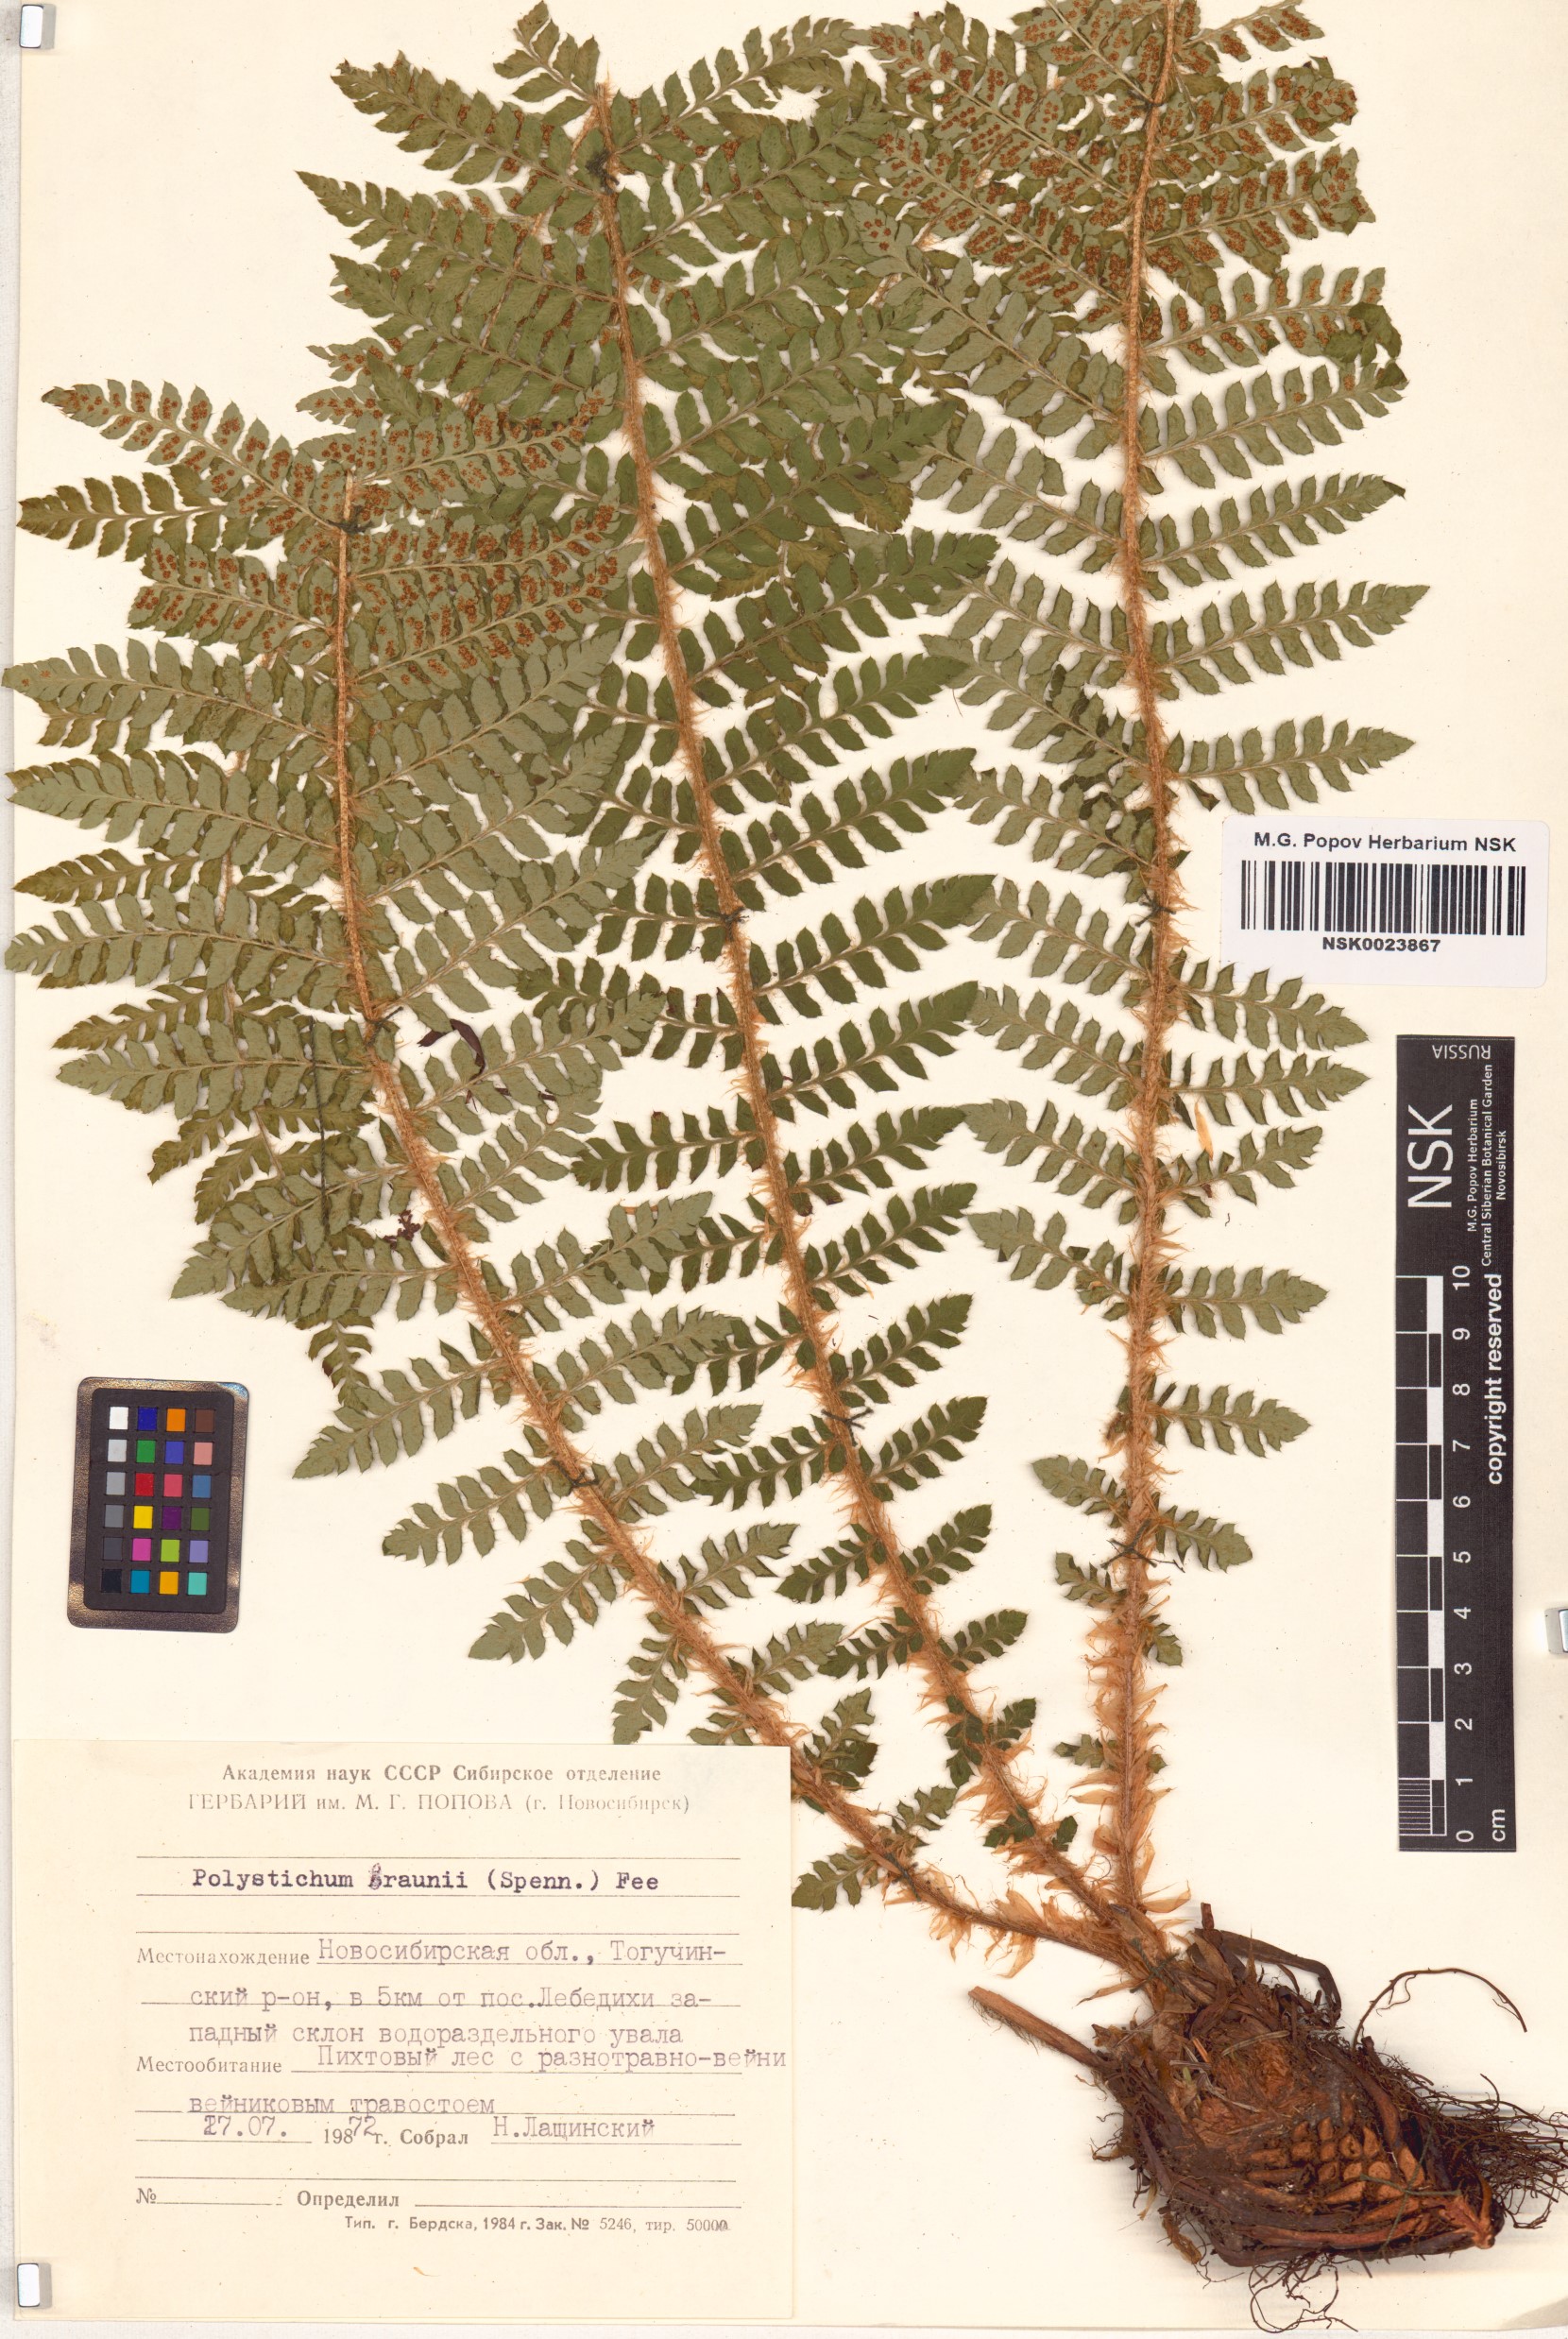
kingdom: Plantae
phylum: Tracheophyta
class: Polypodiopsida
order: Polypodiales
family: Dryopteridaceae
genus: Polystichum
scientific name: Polystichum braunii
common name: Braun's holly fern
